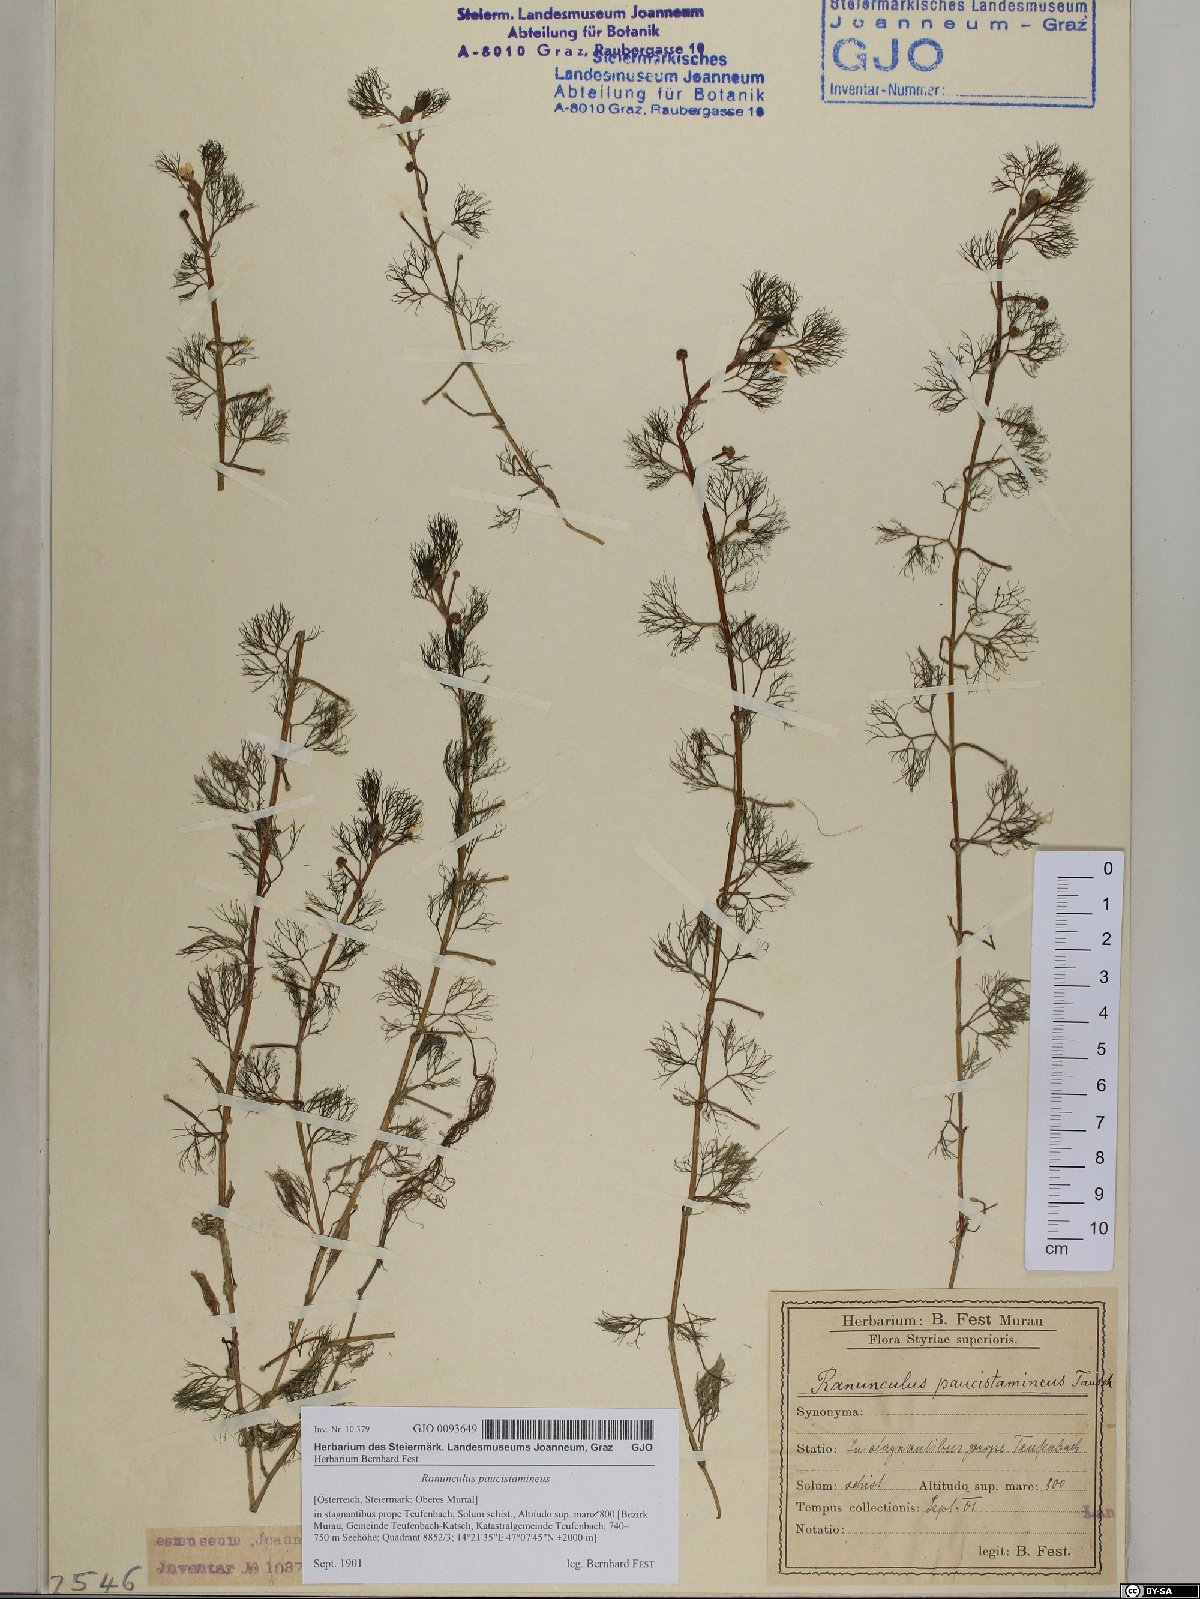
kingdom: Plantae
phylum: Tracheophyta
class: Magnoliopsida
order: Ranunculales
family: Ranunculaceae
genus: Ranunculus
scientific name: Ranunculus
